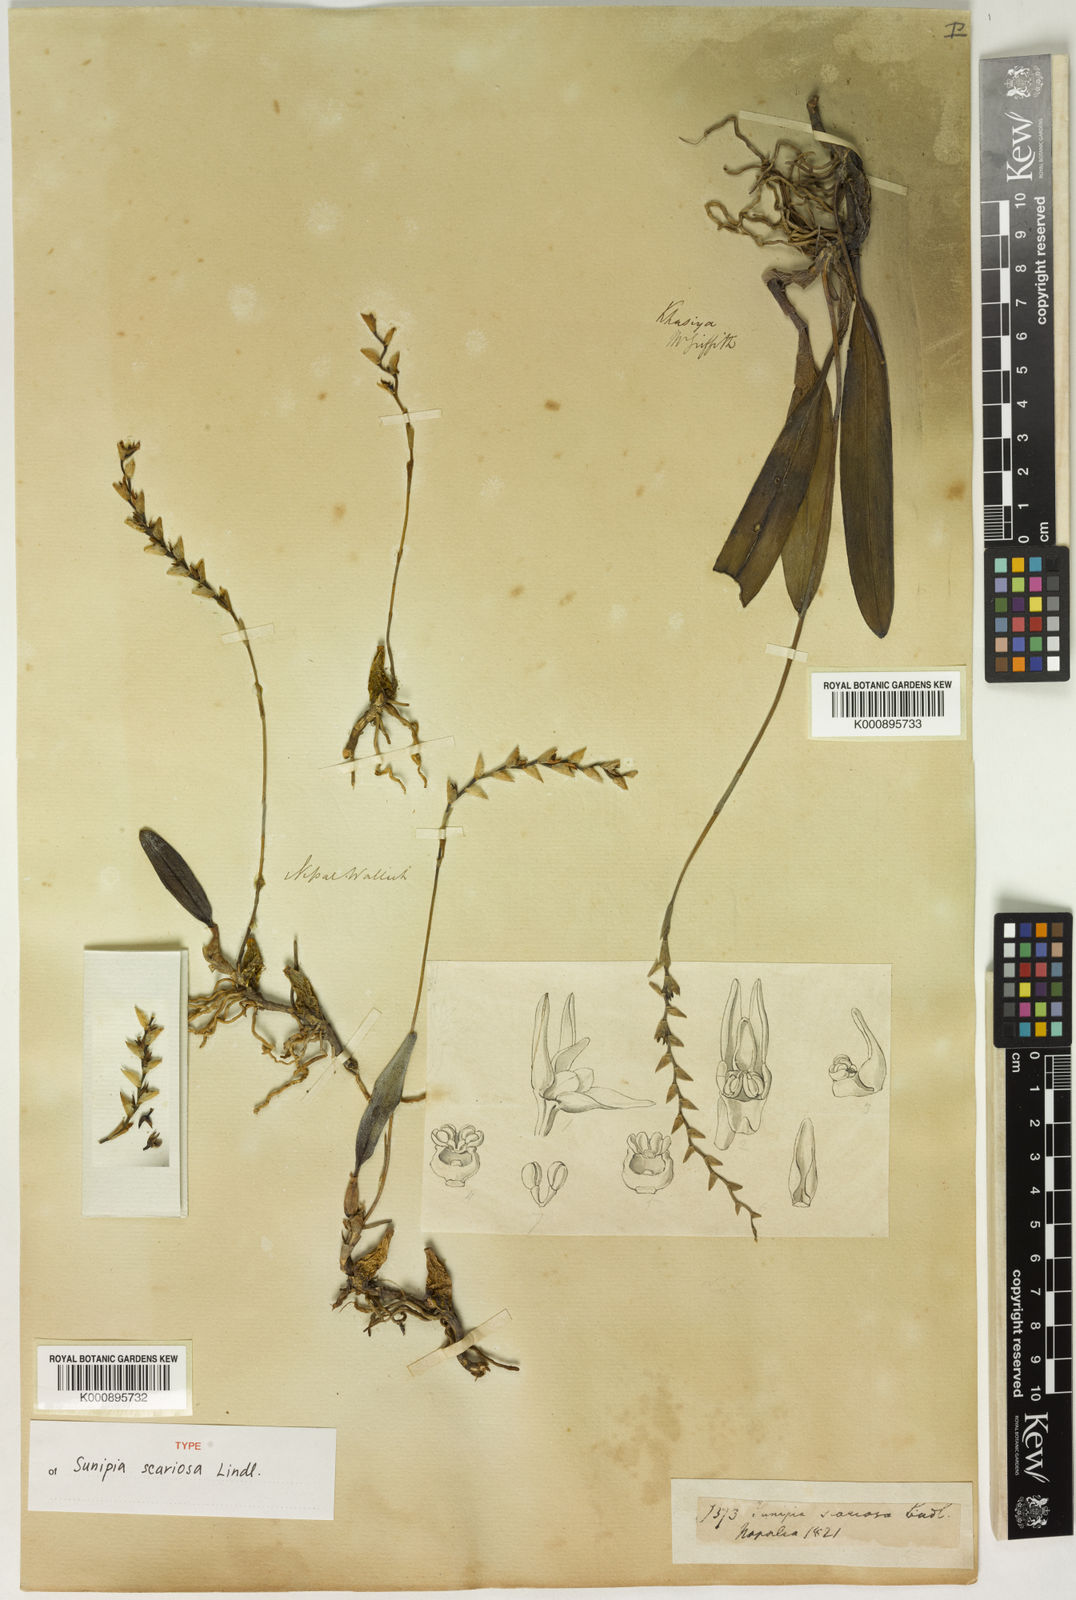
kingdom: Plantae
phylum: Tracheophyta
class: Liliopsida
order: Asparagales
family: Orchidaceae
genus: Bulbophyllum
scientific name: Bulbophyllum sunipia
